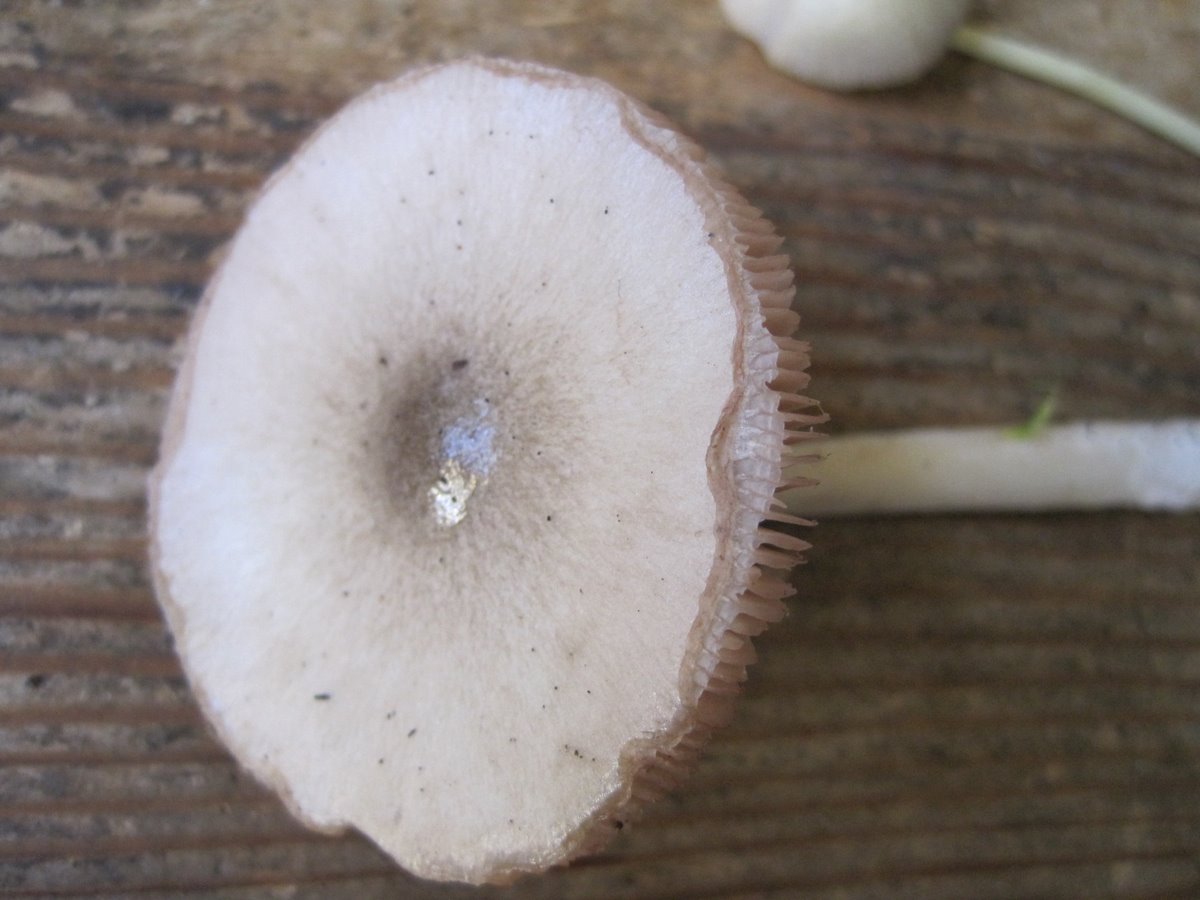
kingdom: Fungi
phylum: Basidiomycota
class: Agaricomycetes
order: Agaricales
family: Pluteaceae
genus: Volvopluteus
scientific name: Volvopluteus gloiocephalus
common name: høj posesvamp
